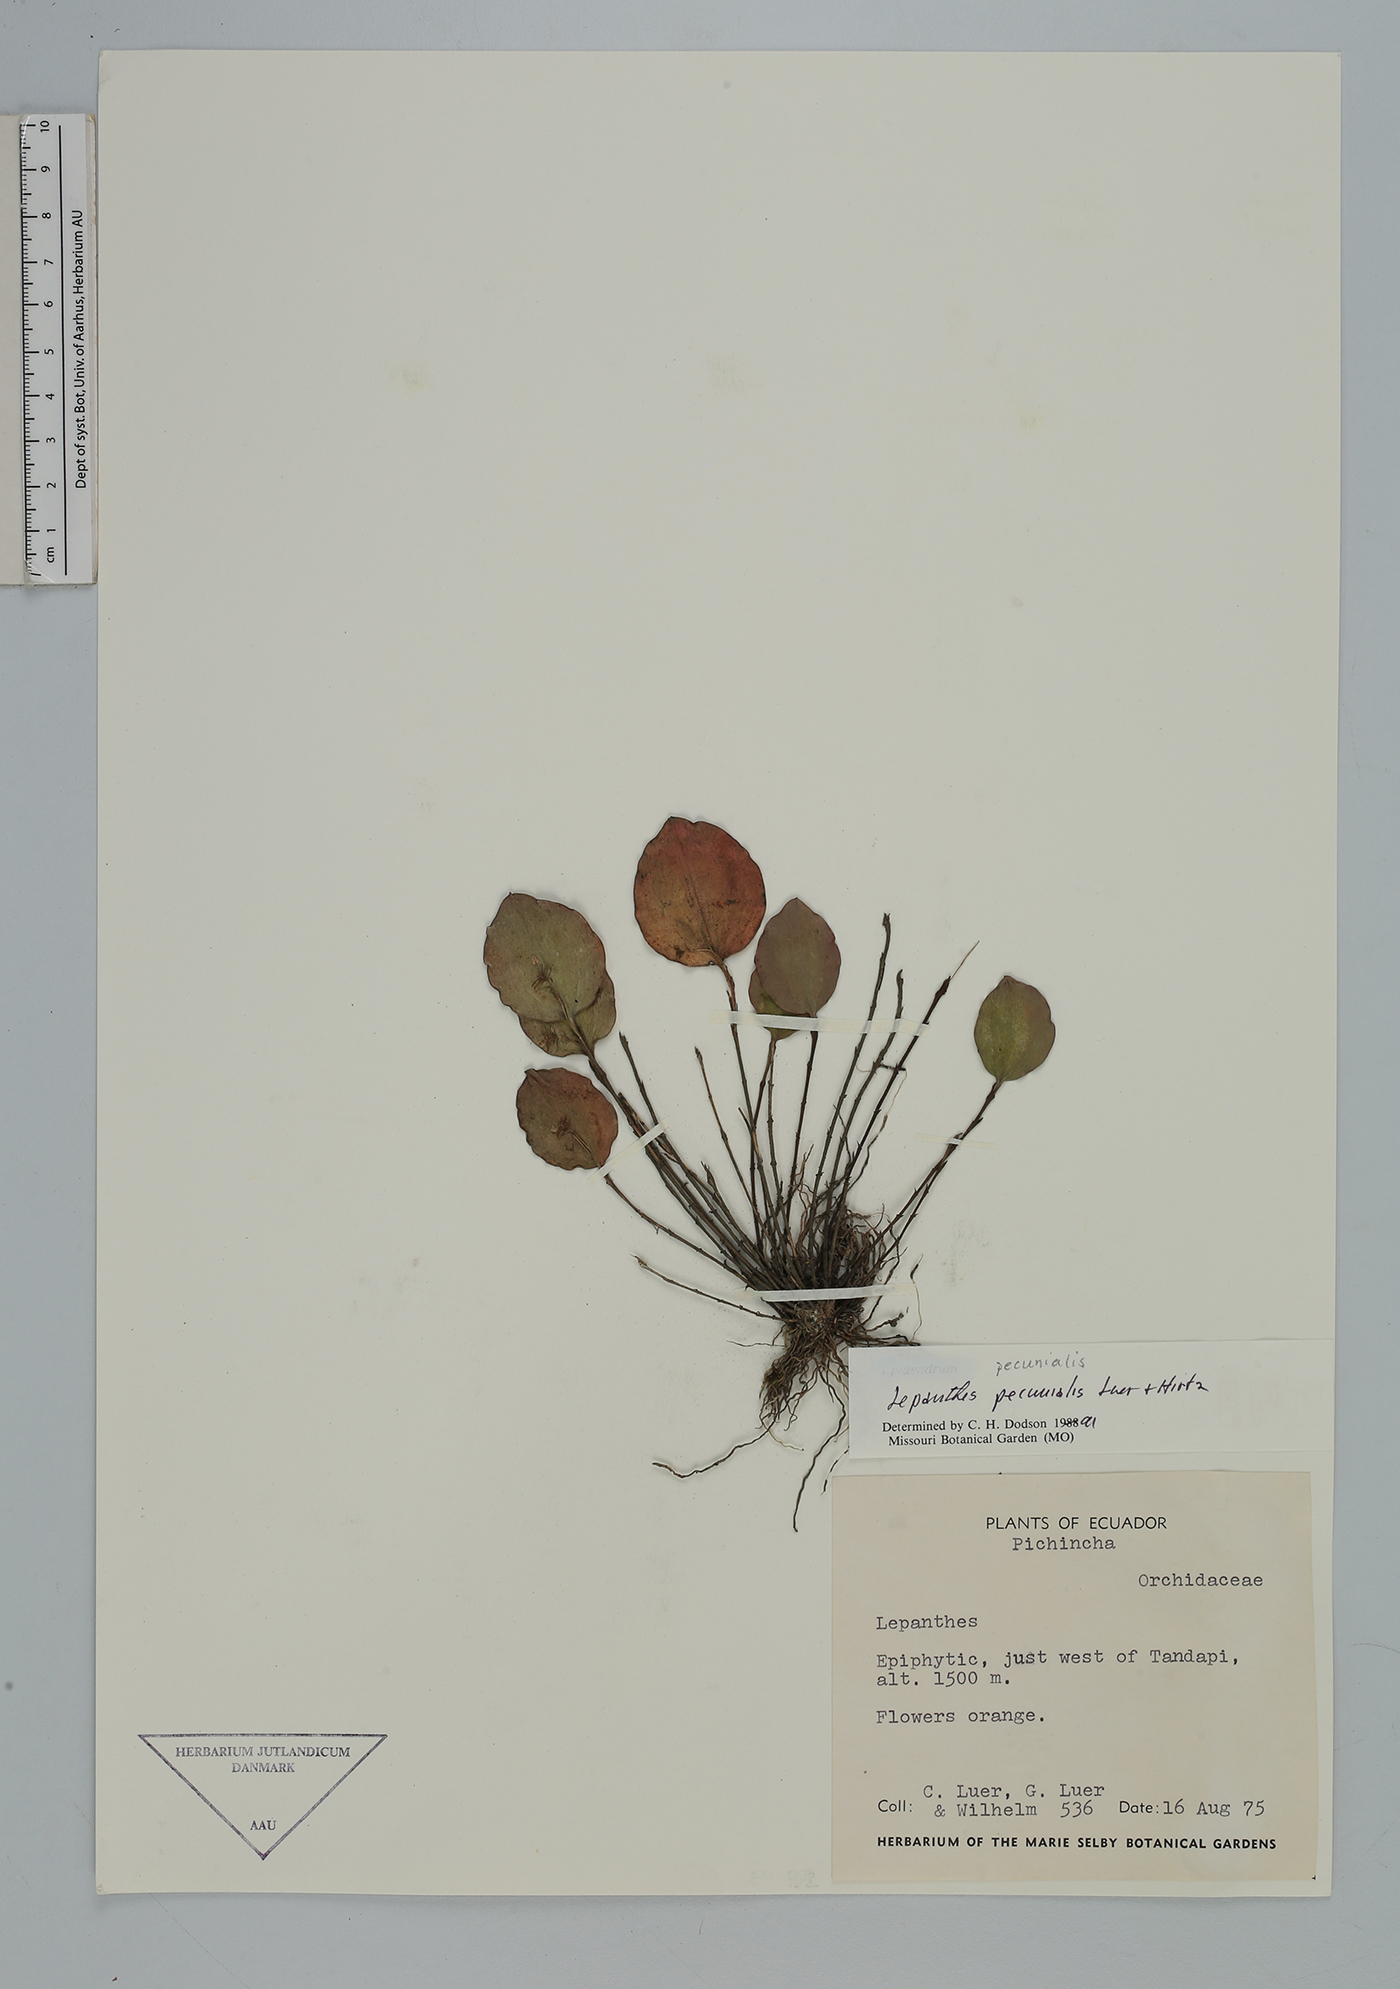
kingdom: Plantae
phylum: Tracheophyta
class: Liliopsida
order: Asparagales
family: Orchidaceae
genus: Lepanthes
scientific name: Lepanthes pecunialis
